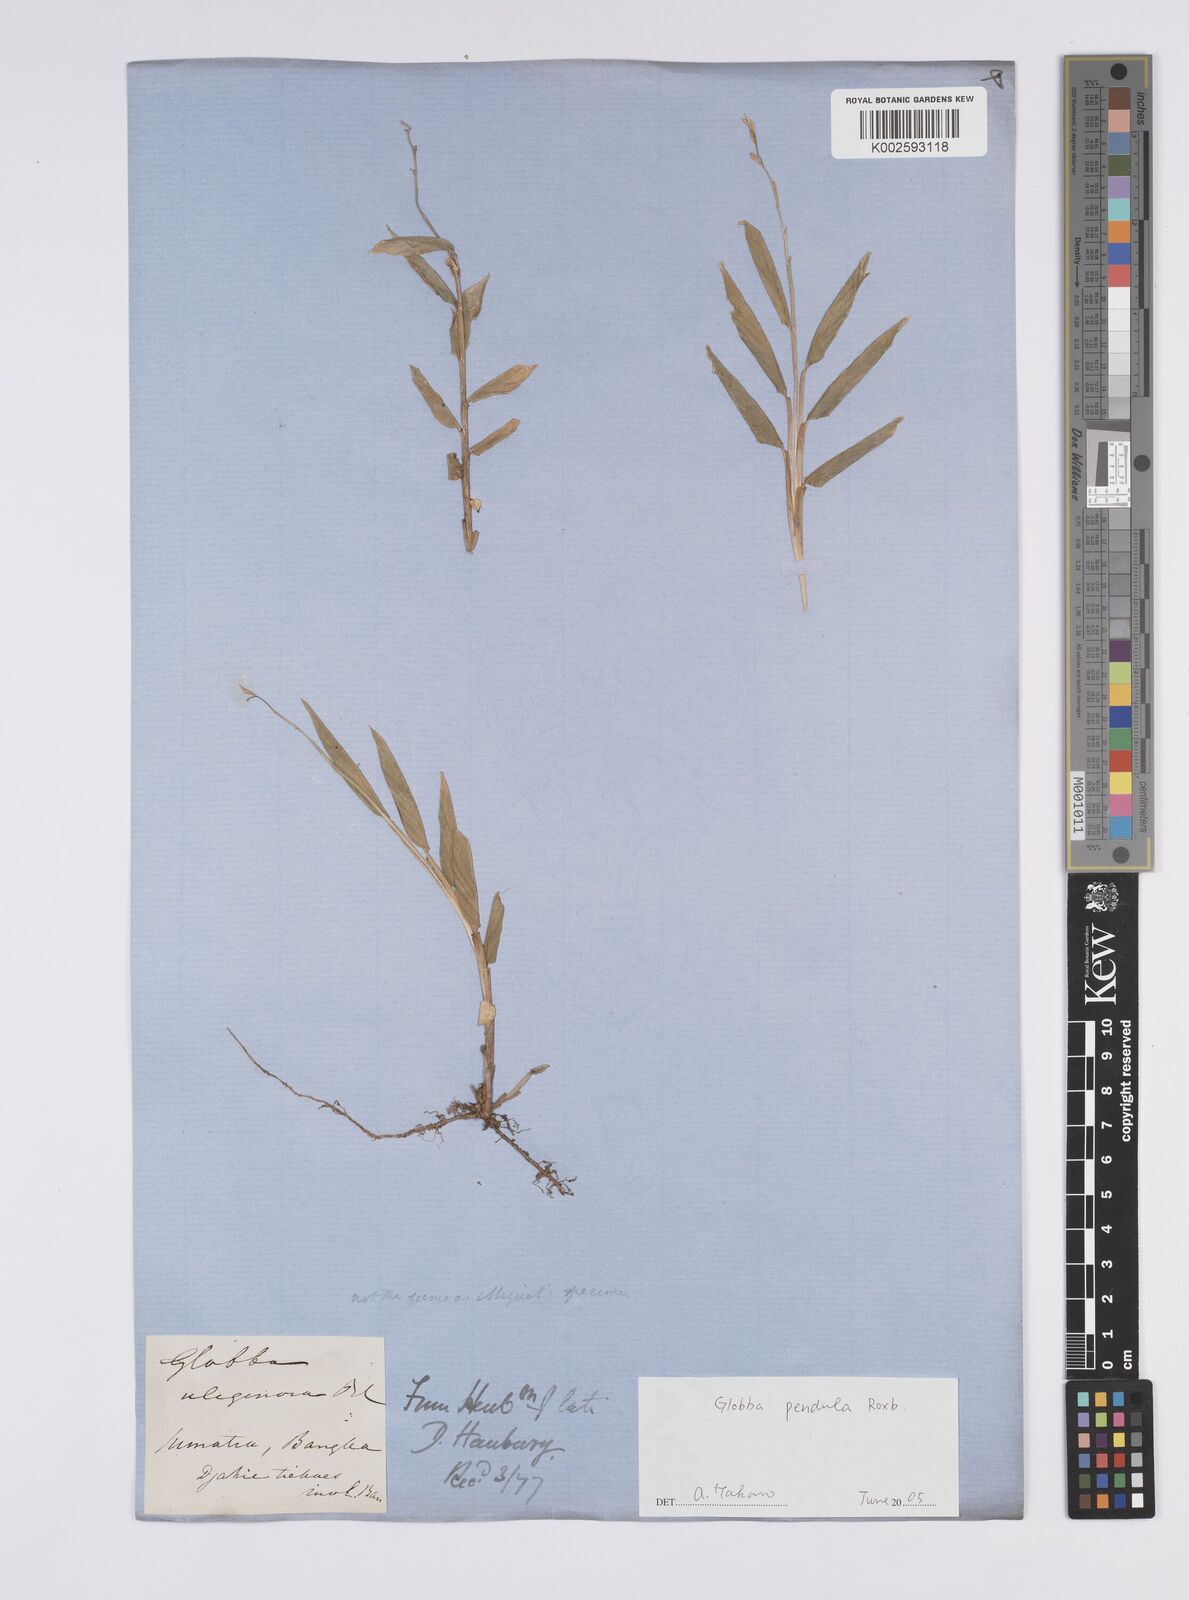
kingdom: Plantae
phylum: Tracheophyta
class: Liliopsida
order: Zingiberales
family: Zingiberaceae
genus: Globba
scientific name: Globba pendula
